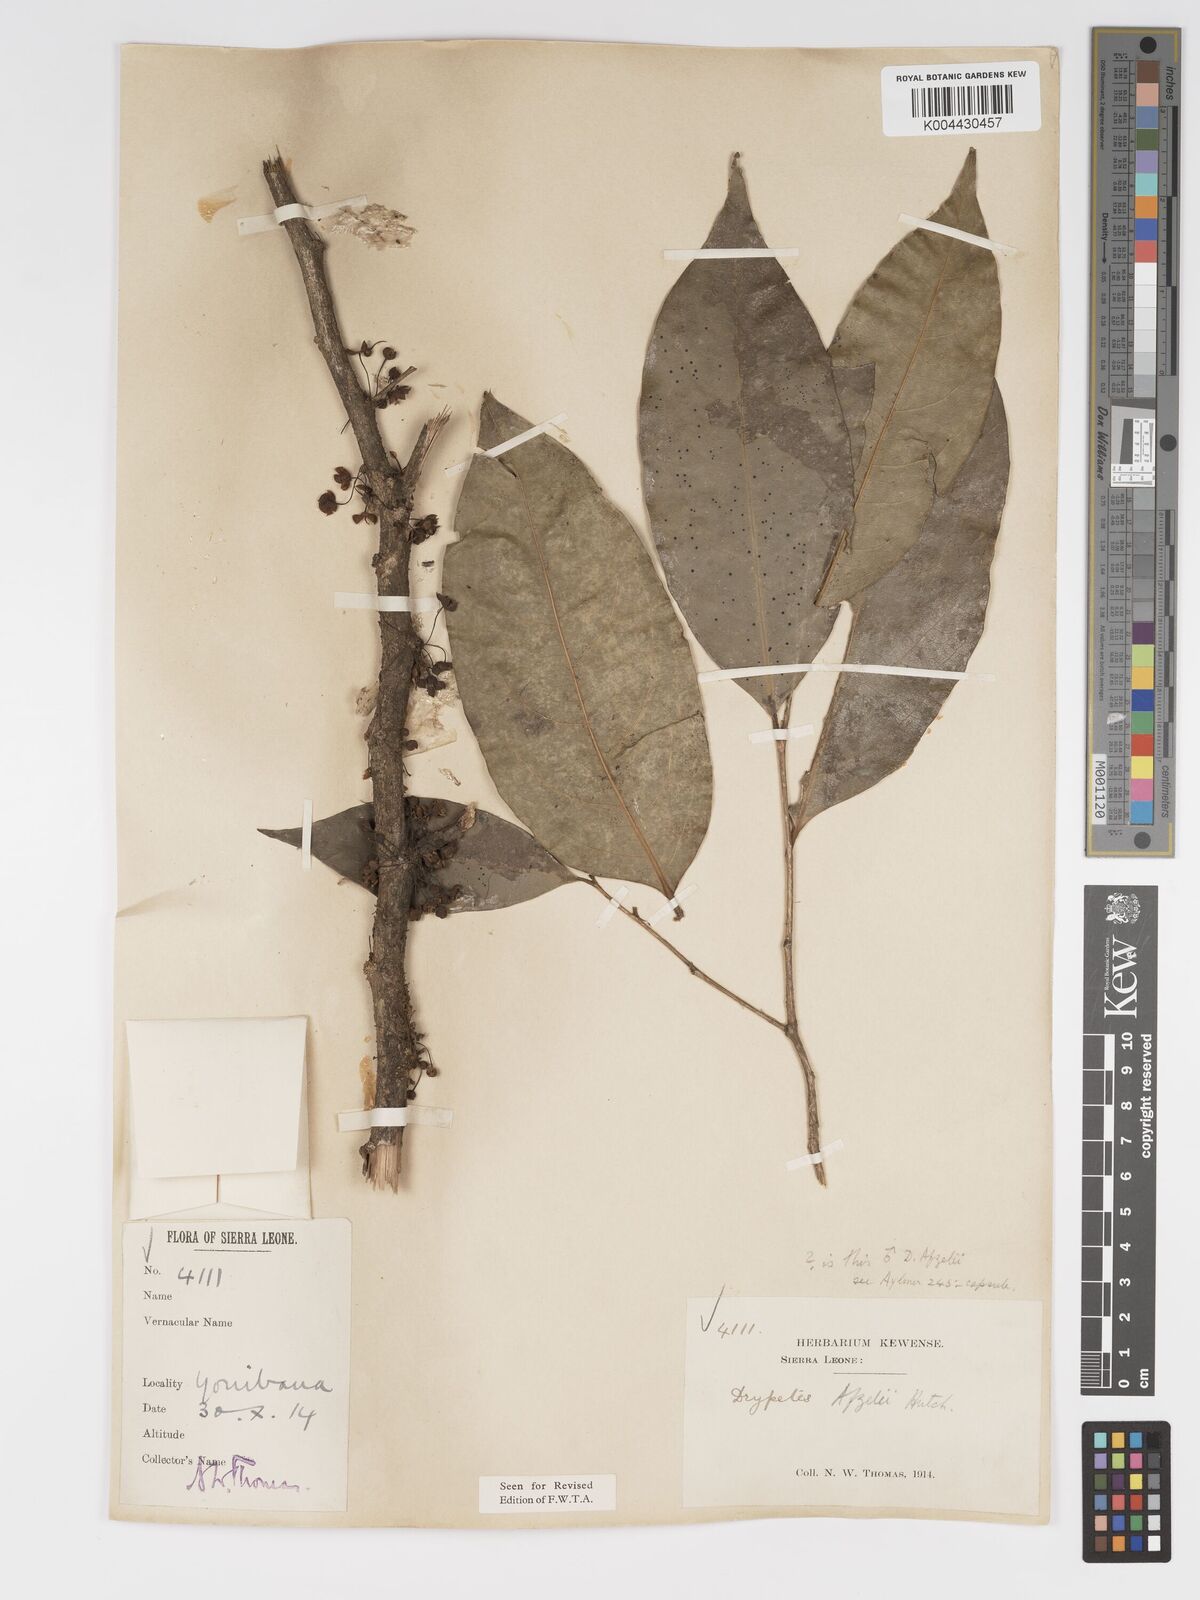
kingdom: Plantae
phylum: Tracheophyta
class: Magnoliopsida
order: Malpighiales
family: Putranjivaceae
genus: Drypetes
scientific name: Drypetes afzelii
